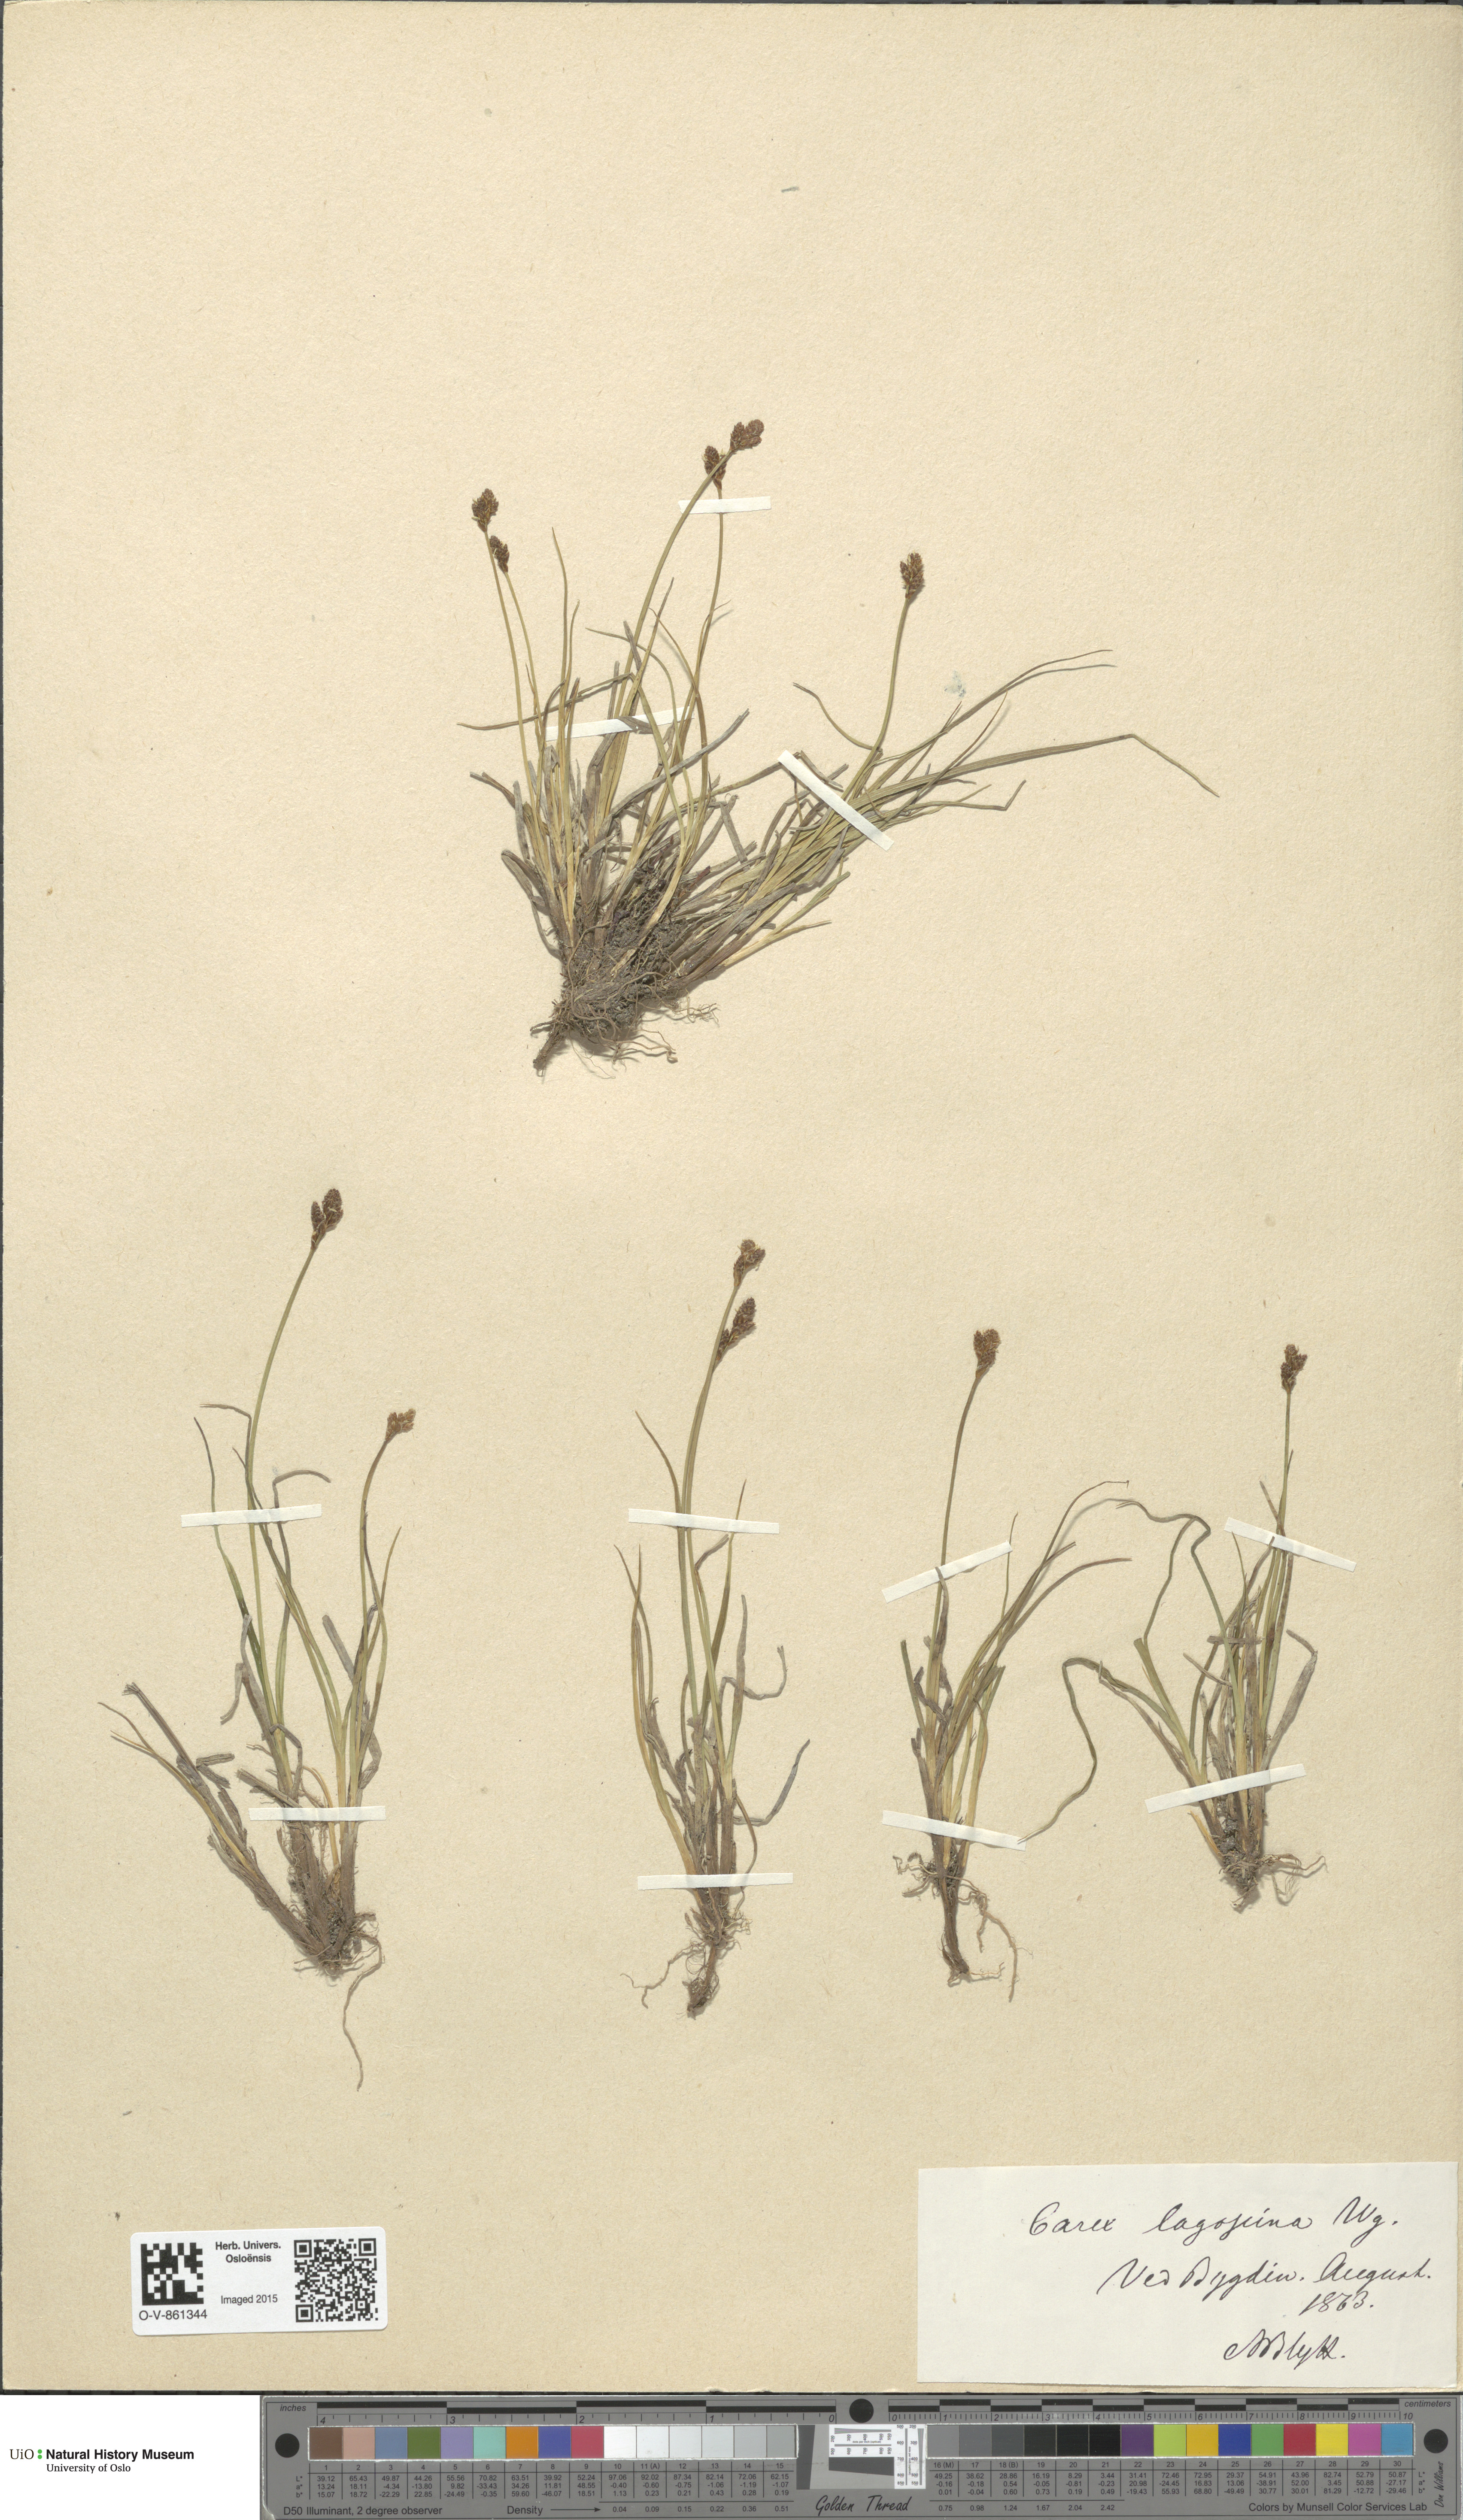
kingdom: Plantae
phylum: Tracheophyta
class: Liliopsida
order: Poales
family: Cyperaceae
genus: Carex
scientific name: Carex lachenalii
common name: Hare's-foot sedge
